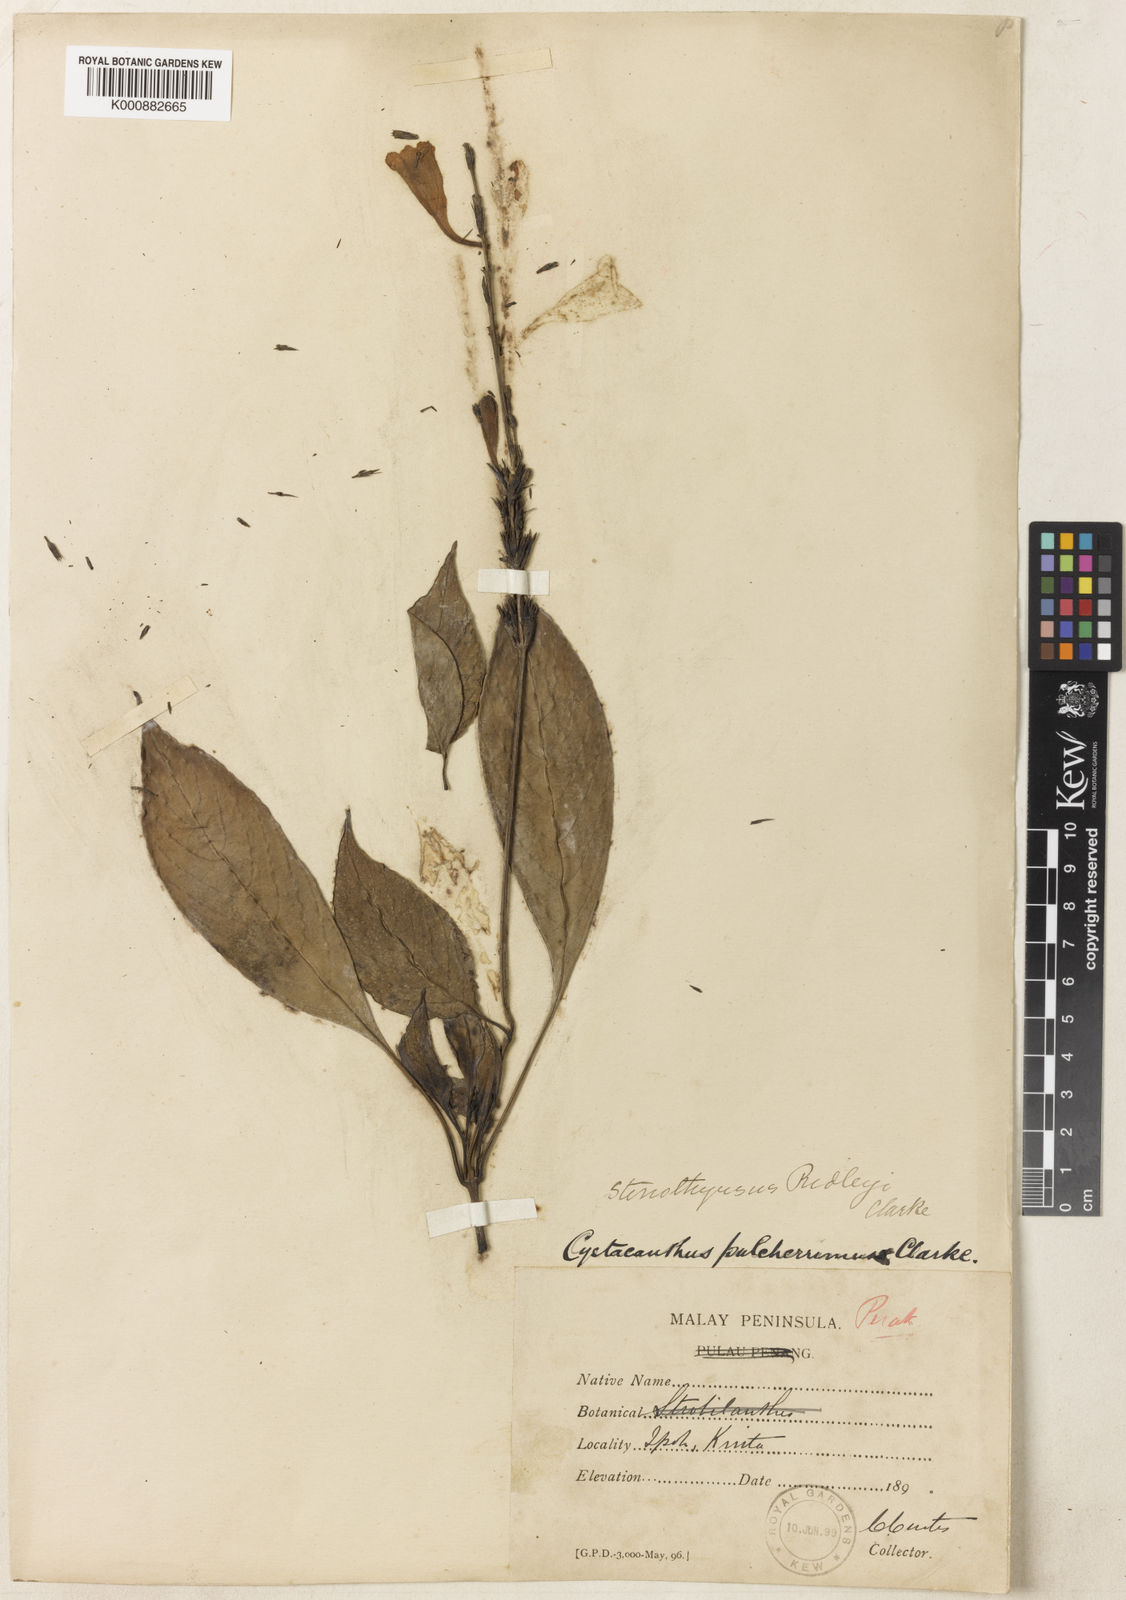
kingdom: Plantae
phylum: Tracheophyta
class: Magnoliopsida
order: Lamiales
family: Acanthaceae
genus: Stenothyrsus
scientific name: Stenothyrsus ridleyi
